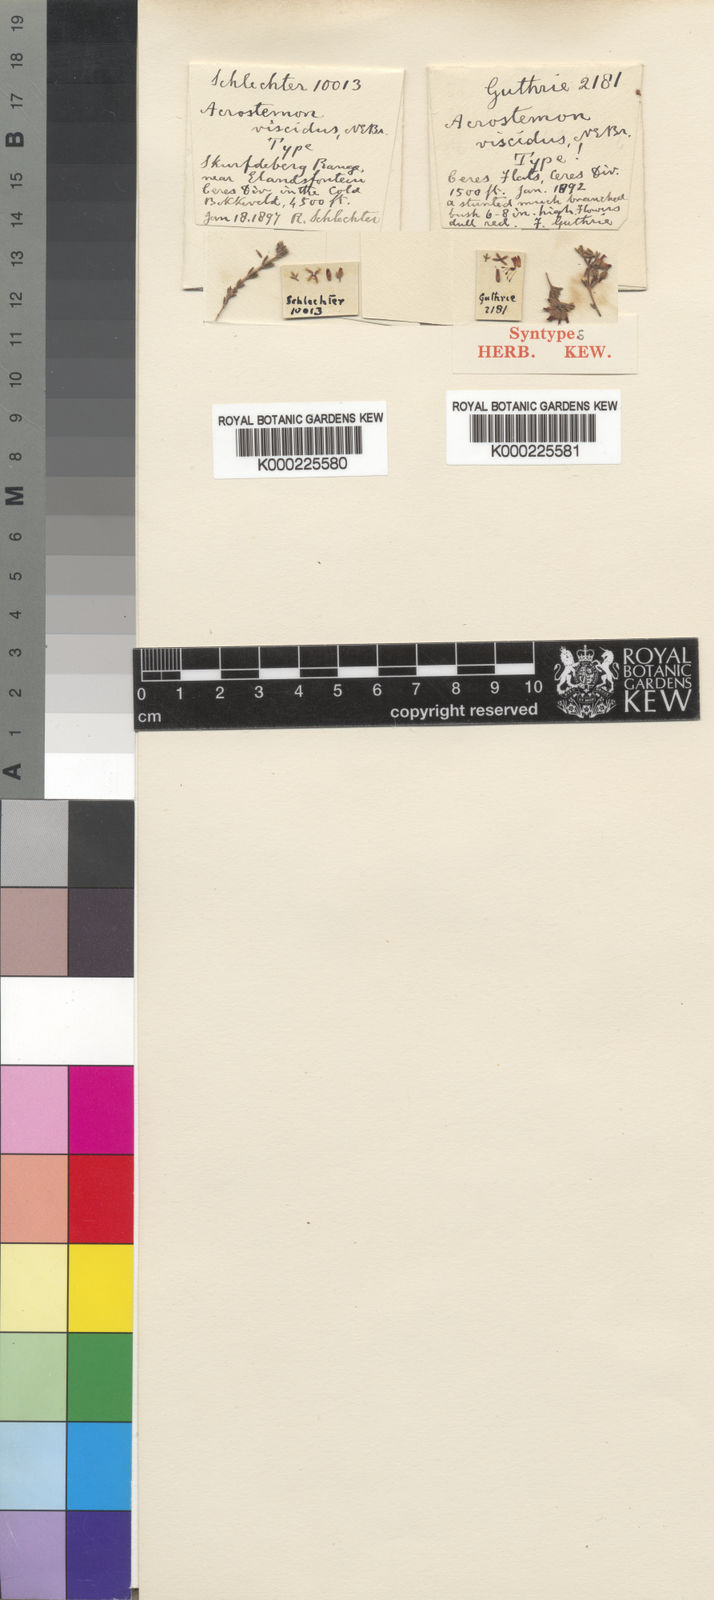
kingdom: Plantae
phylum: Tracheophyta
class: Magnoliopsida
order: Ericales
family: Ericaceae
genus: Erica
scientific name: Erica arachnocalyx
